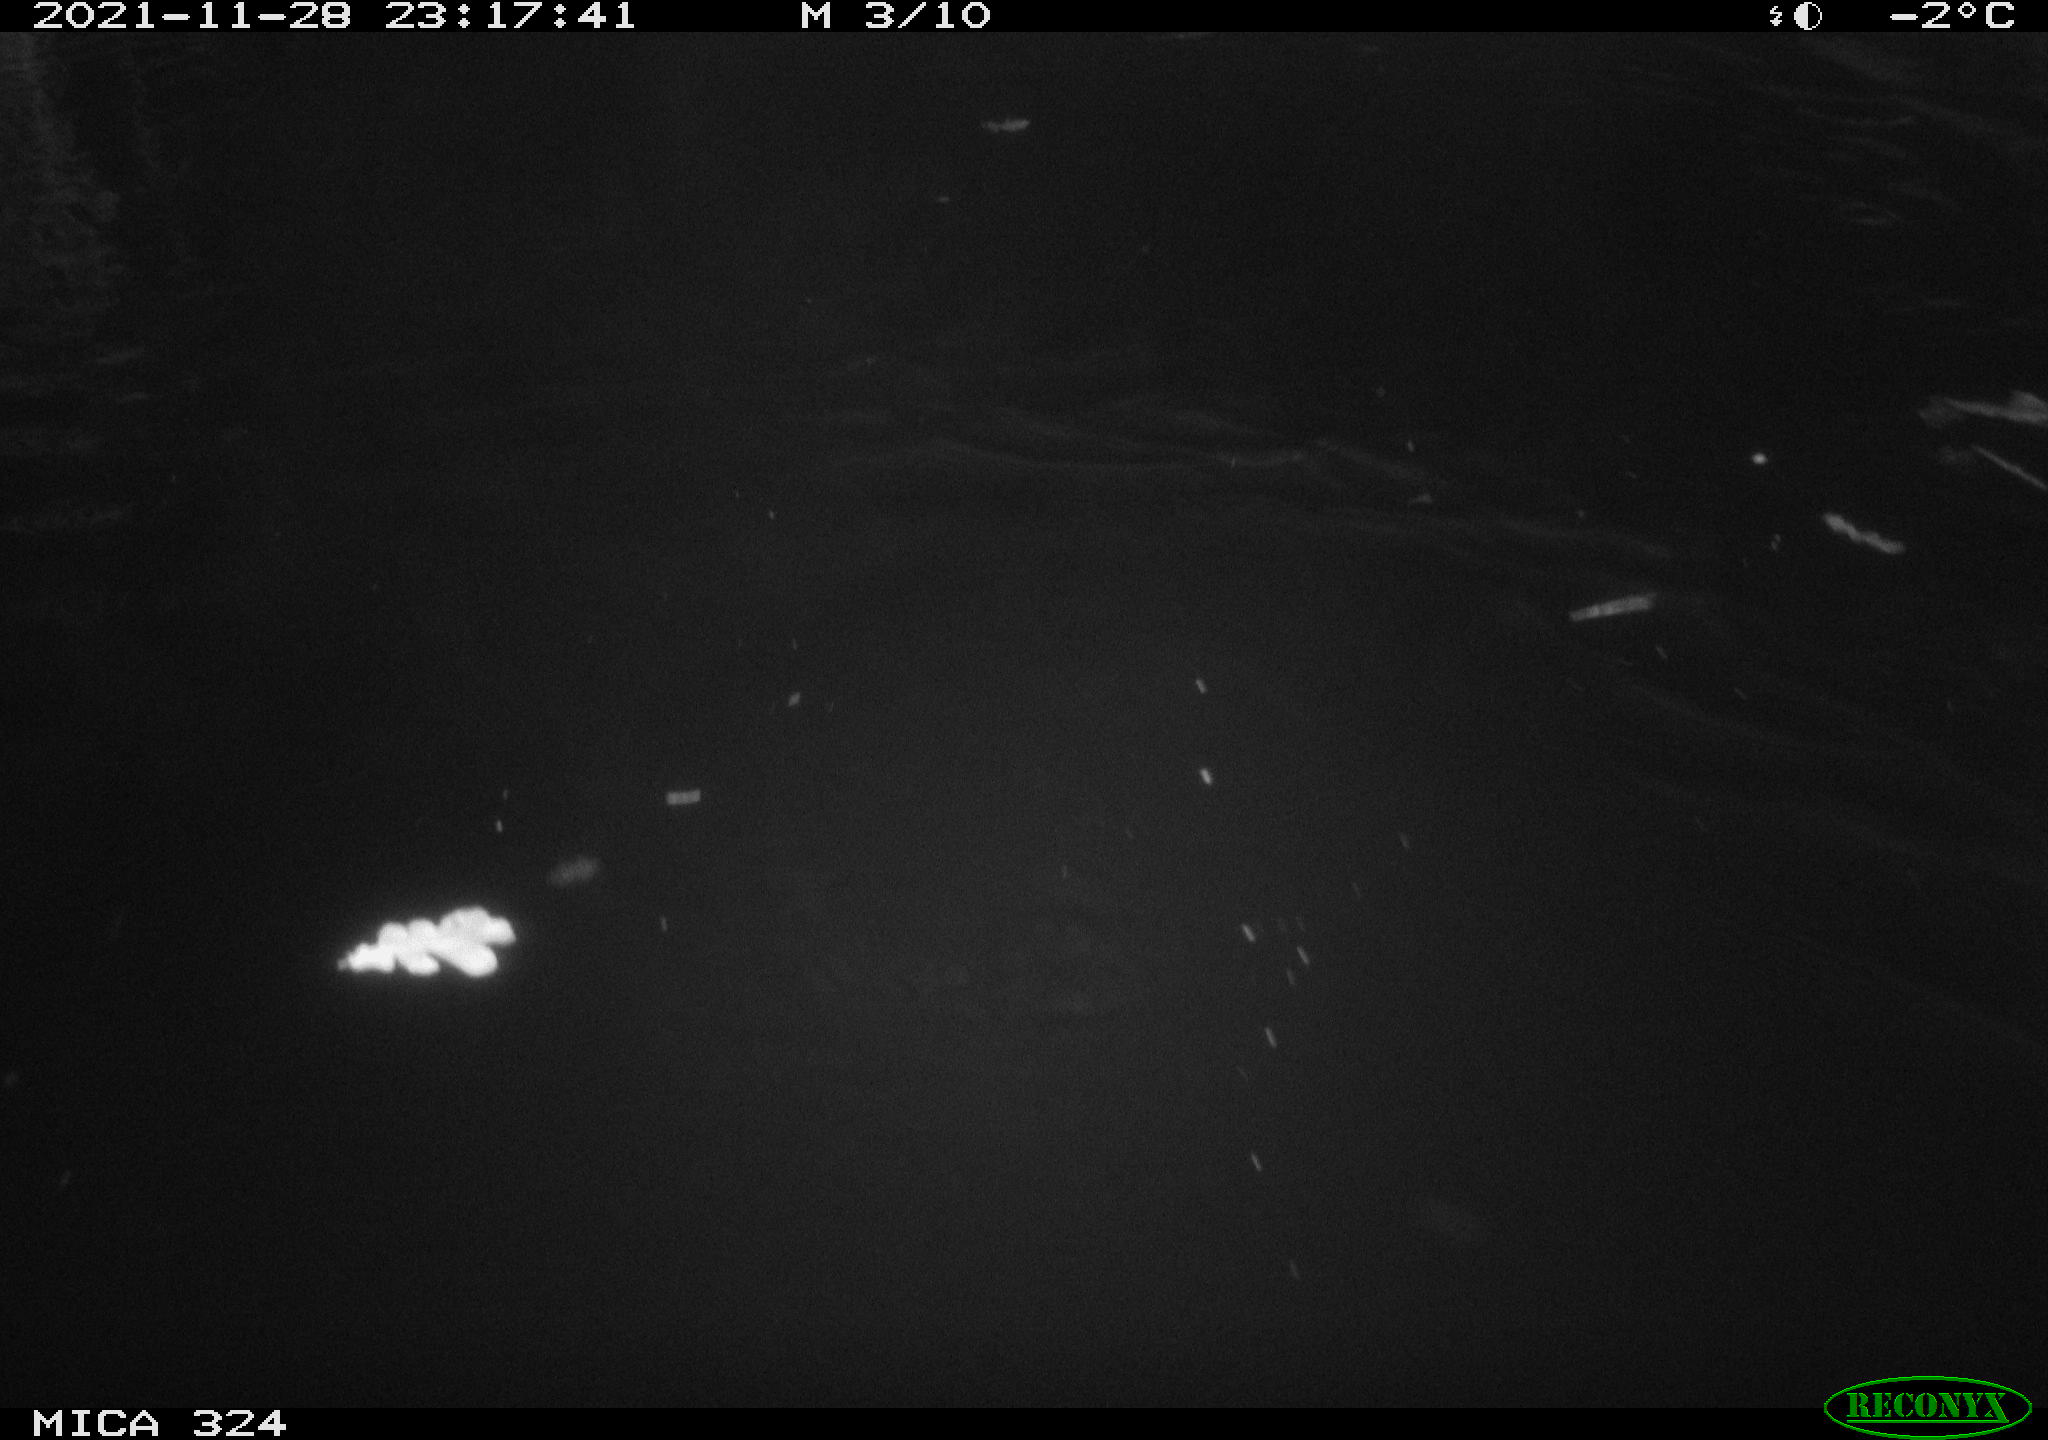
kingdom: Animalia
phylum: Chordata
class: Mammalia
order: Rodentia
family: Cricetidae
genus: Ondatra
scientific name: Ondatra zibethicus
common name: Muskrat
